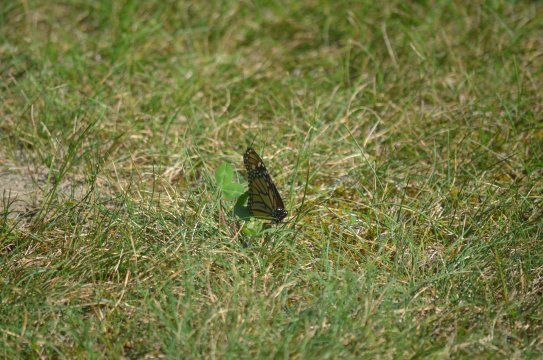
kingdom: Animalia
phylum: Arthropoda
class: Insecta
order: Lepidoptera
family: Nymphalidae
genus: Danaus
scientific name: Danaus plexippus
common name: Monarch
